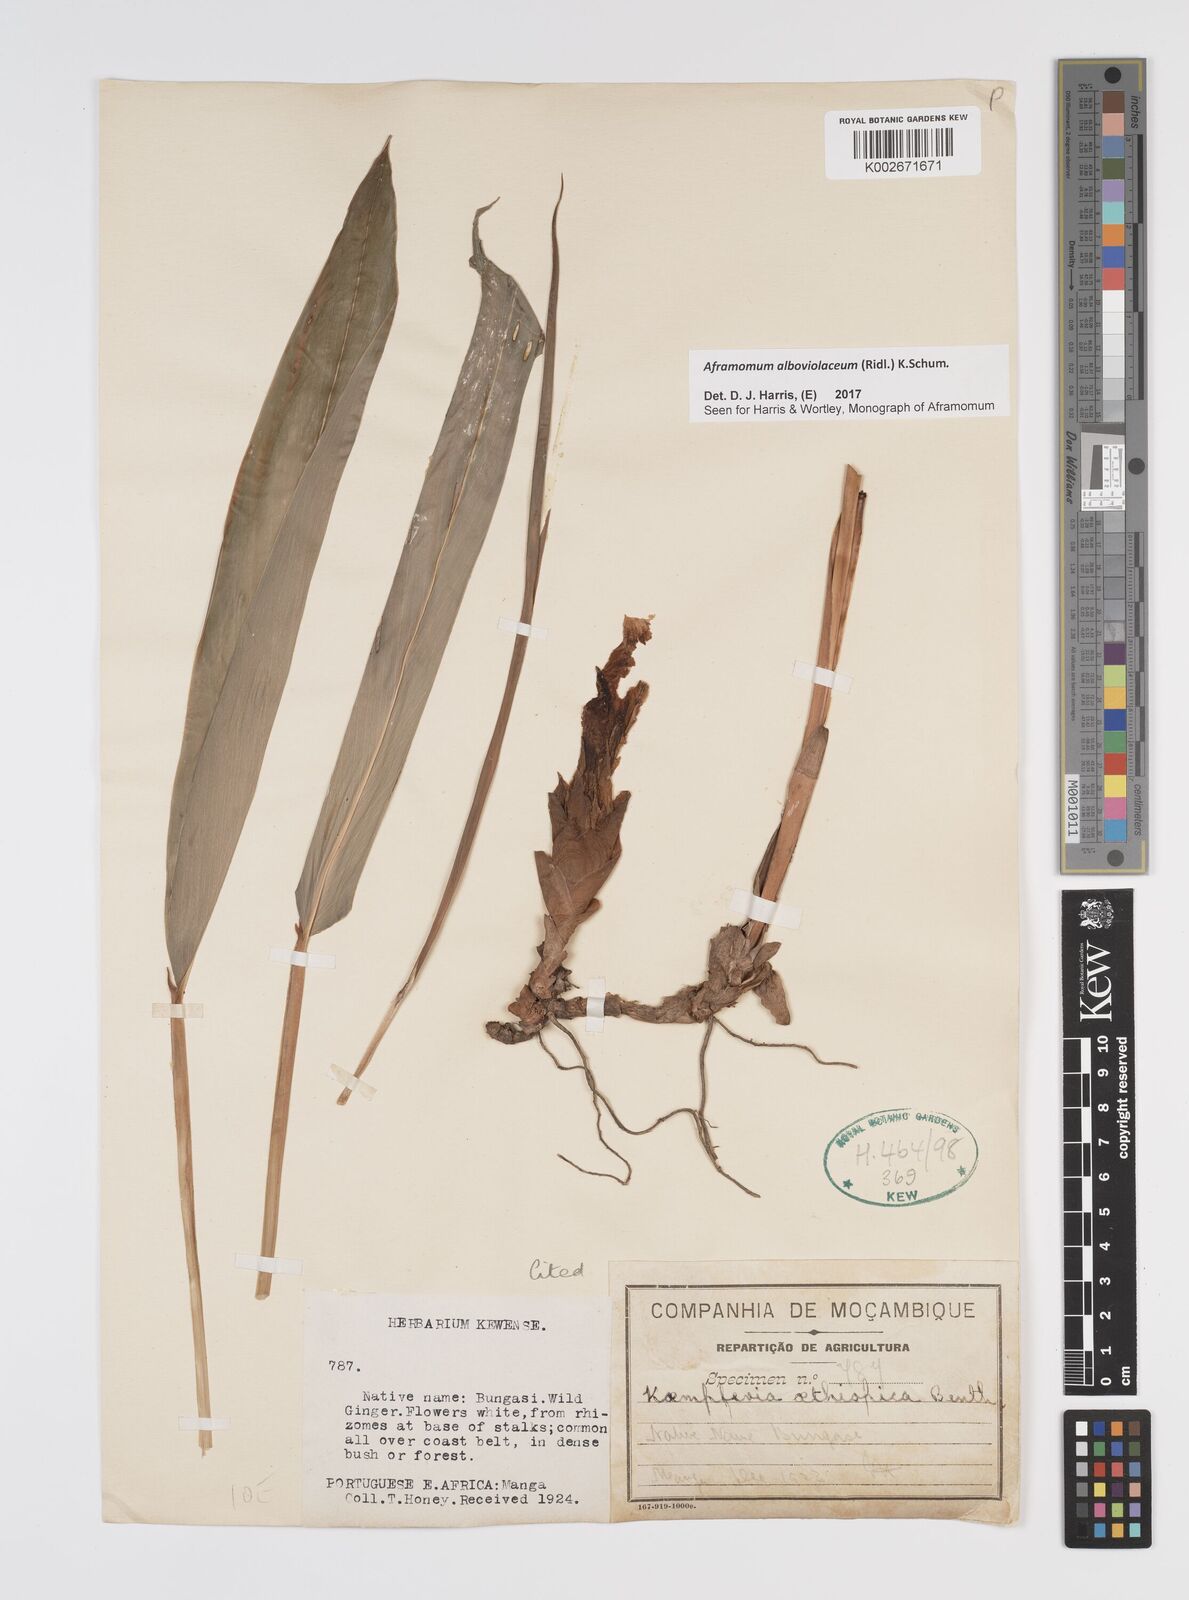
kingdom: Plantae
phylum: Tracheophyta
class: Liliopsida
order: Zingiberales
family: Zingiberaceae
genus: Aframomum
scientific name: Aframomum alboviolaceum
